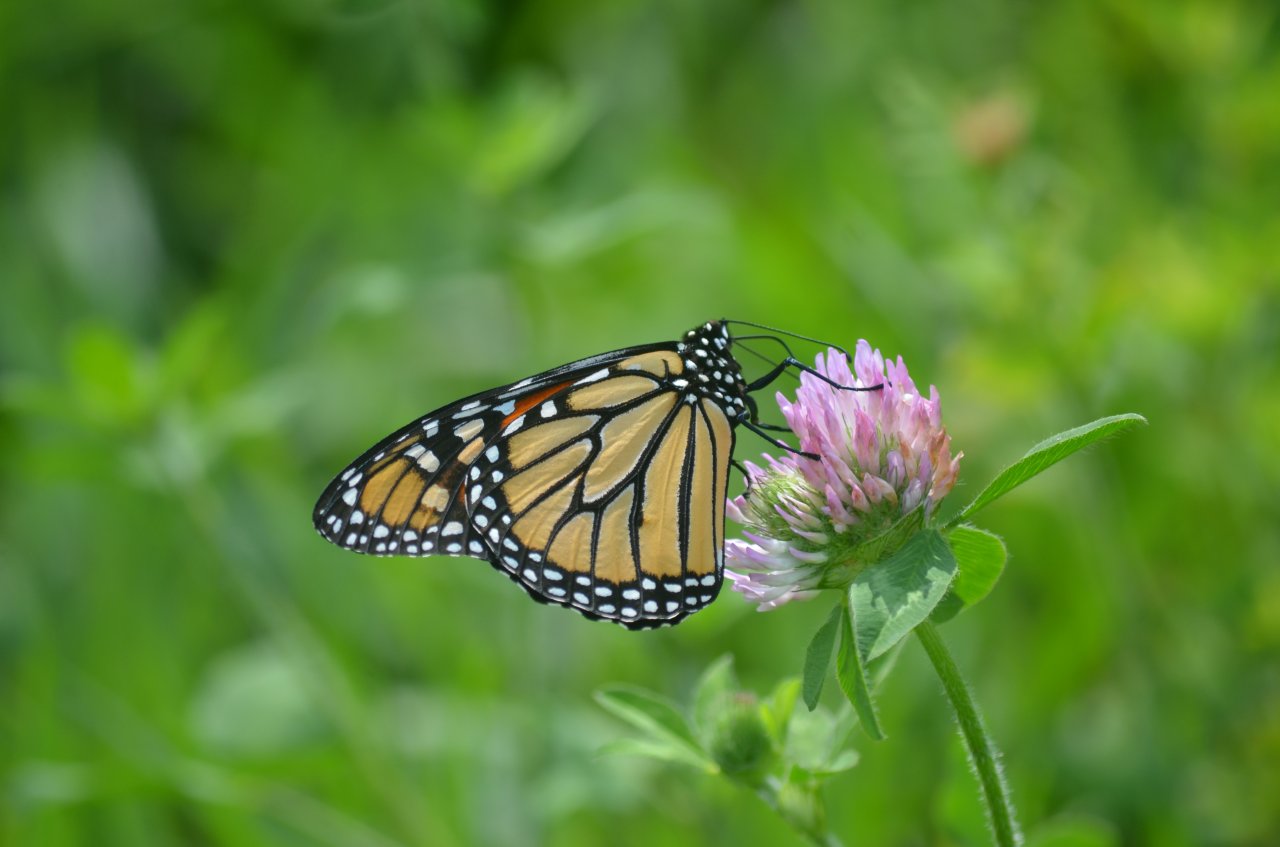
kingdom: Animalia
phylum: Arthropoda
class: Insecta
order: Lepidoptera
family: Nymphalidae
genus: Danaus
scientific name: Danaus plexippus
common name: Monarch
